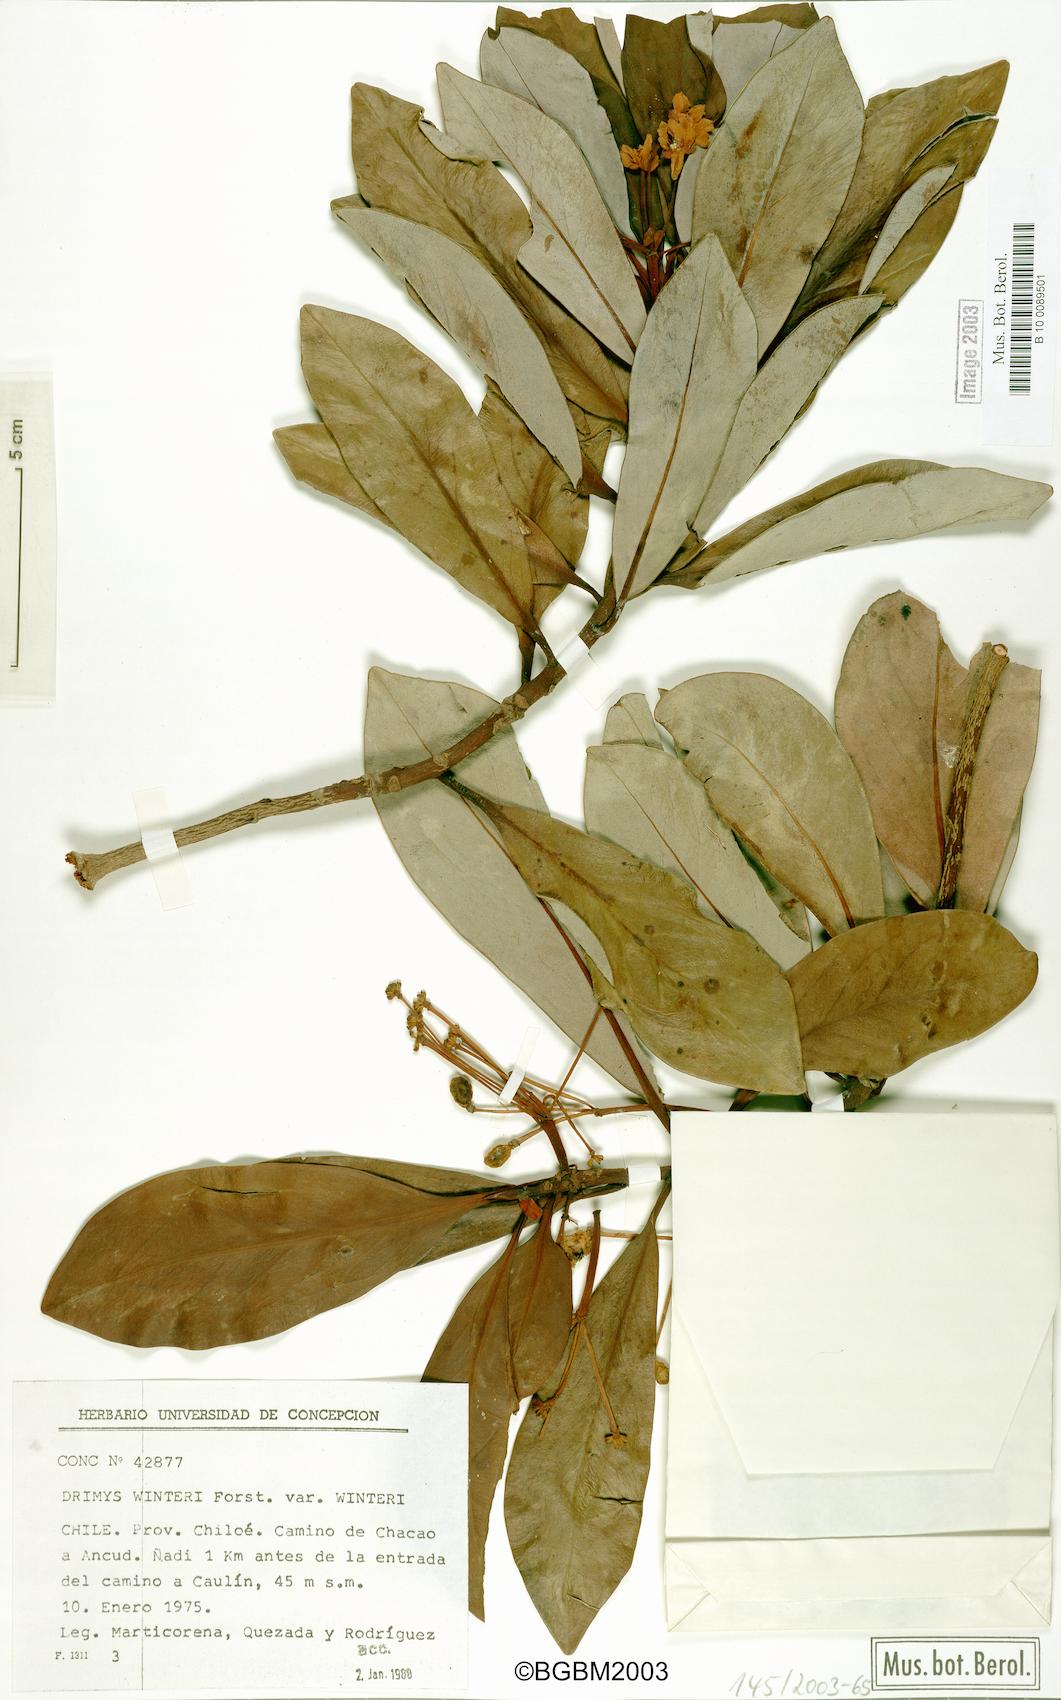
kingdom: Plantae
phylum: Tracheophyta
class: Magnoliopsida
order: Canellales
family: Winteraceae
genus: Drimys
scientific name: Drimys winteri
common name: Winter's-bark
